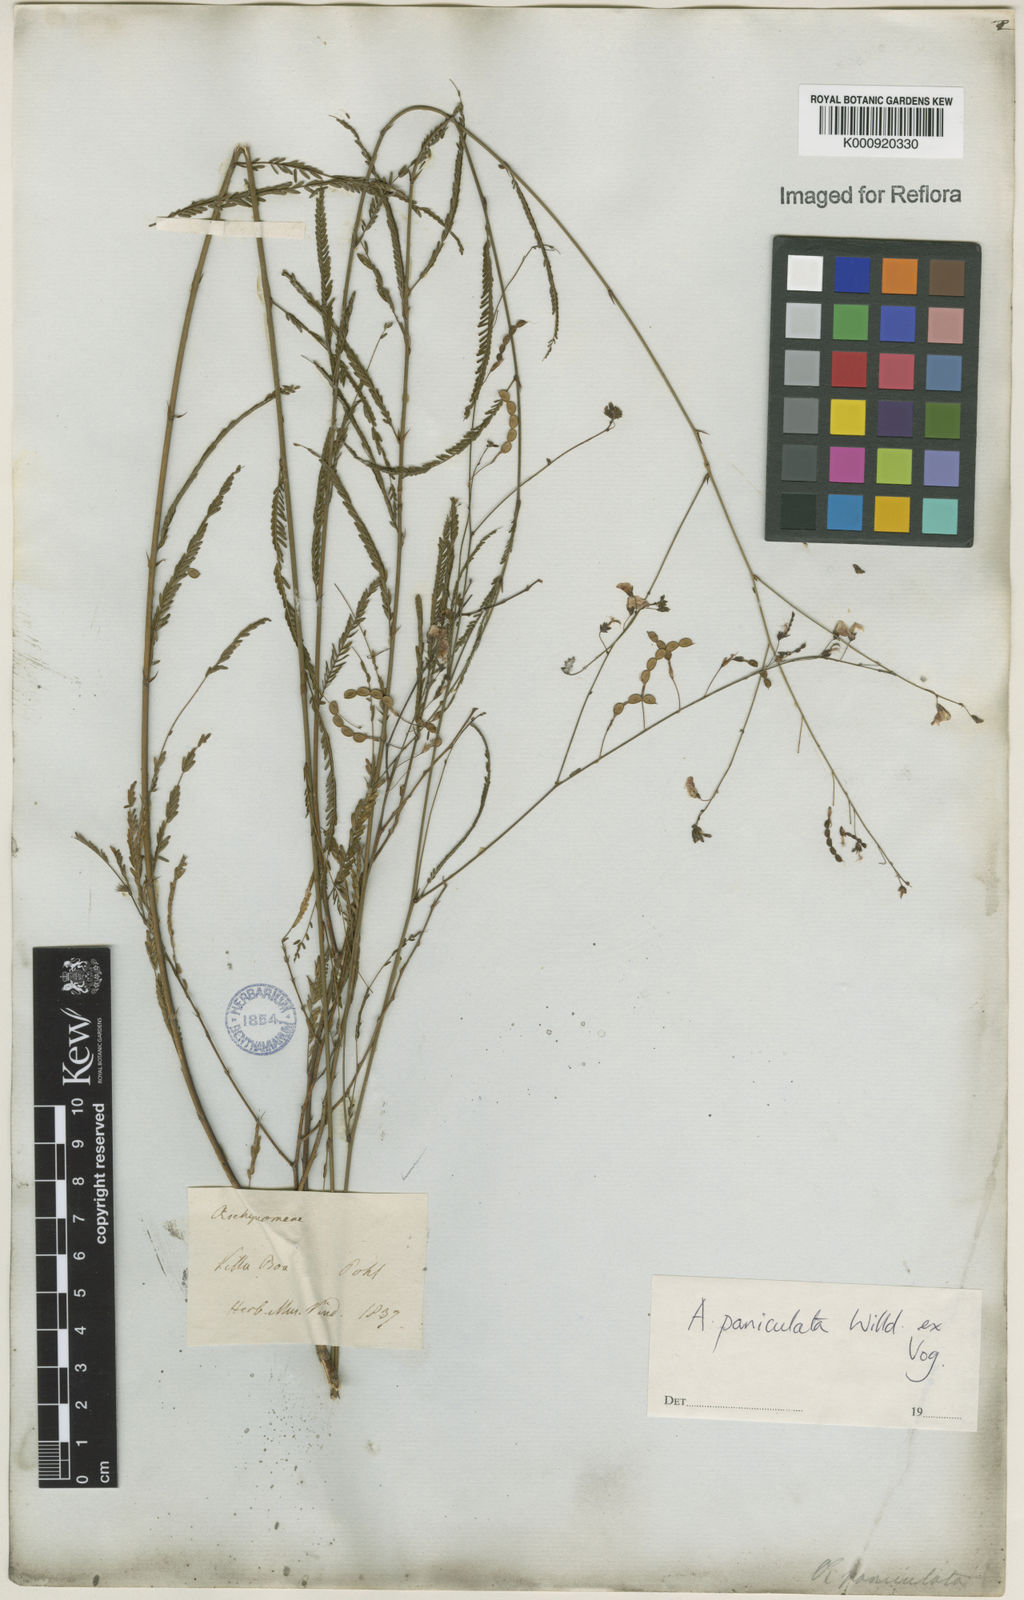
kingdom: Plantae
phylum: Tracheophyta
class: Magnoliopsida
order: Fabales
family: Fabaceae
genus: Ctenodon
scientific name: Ctenodon paniculatus
